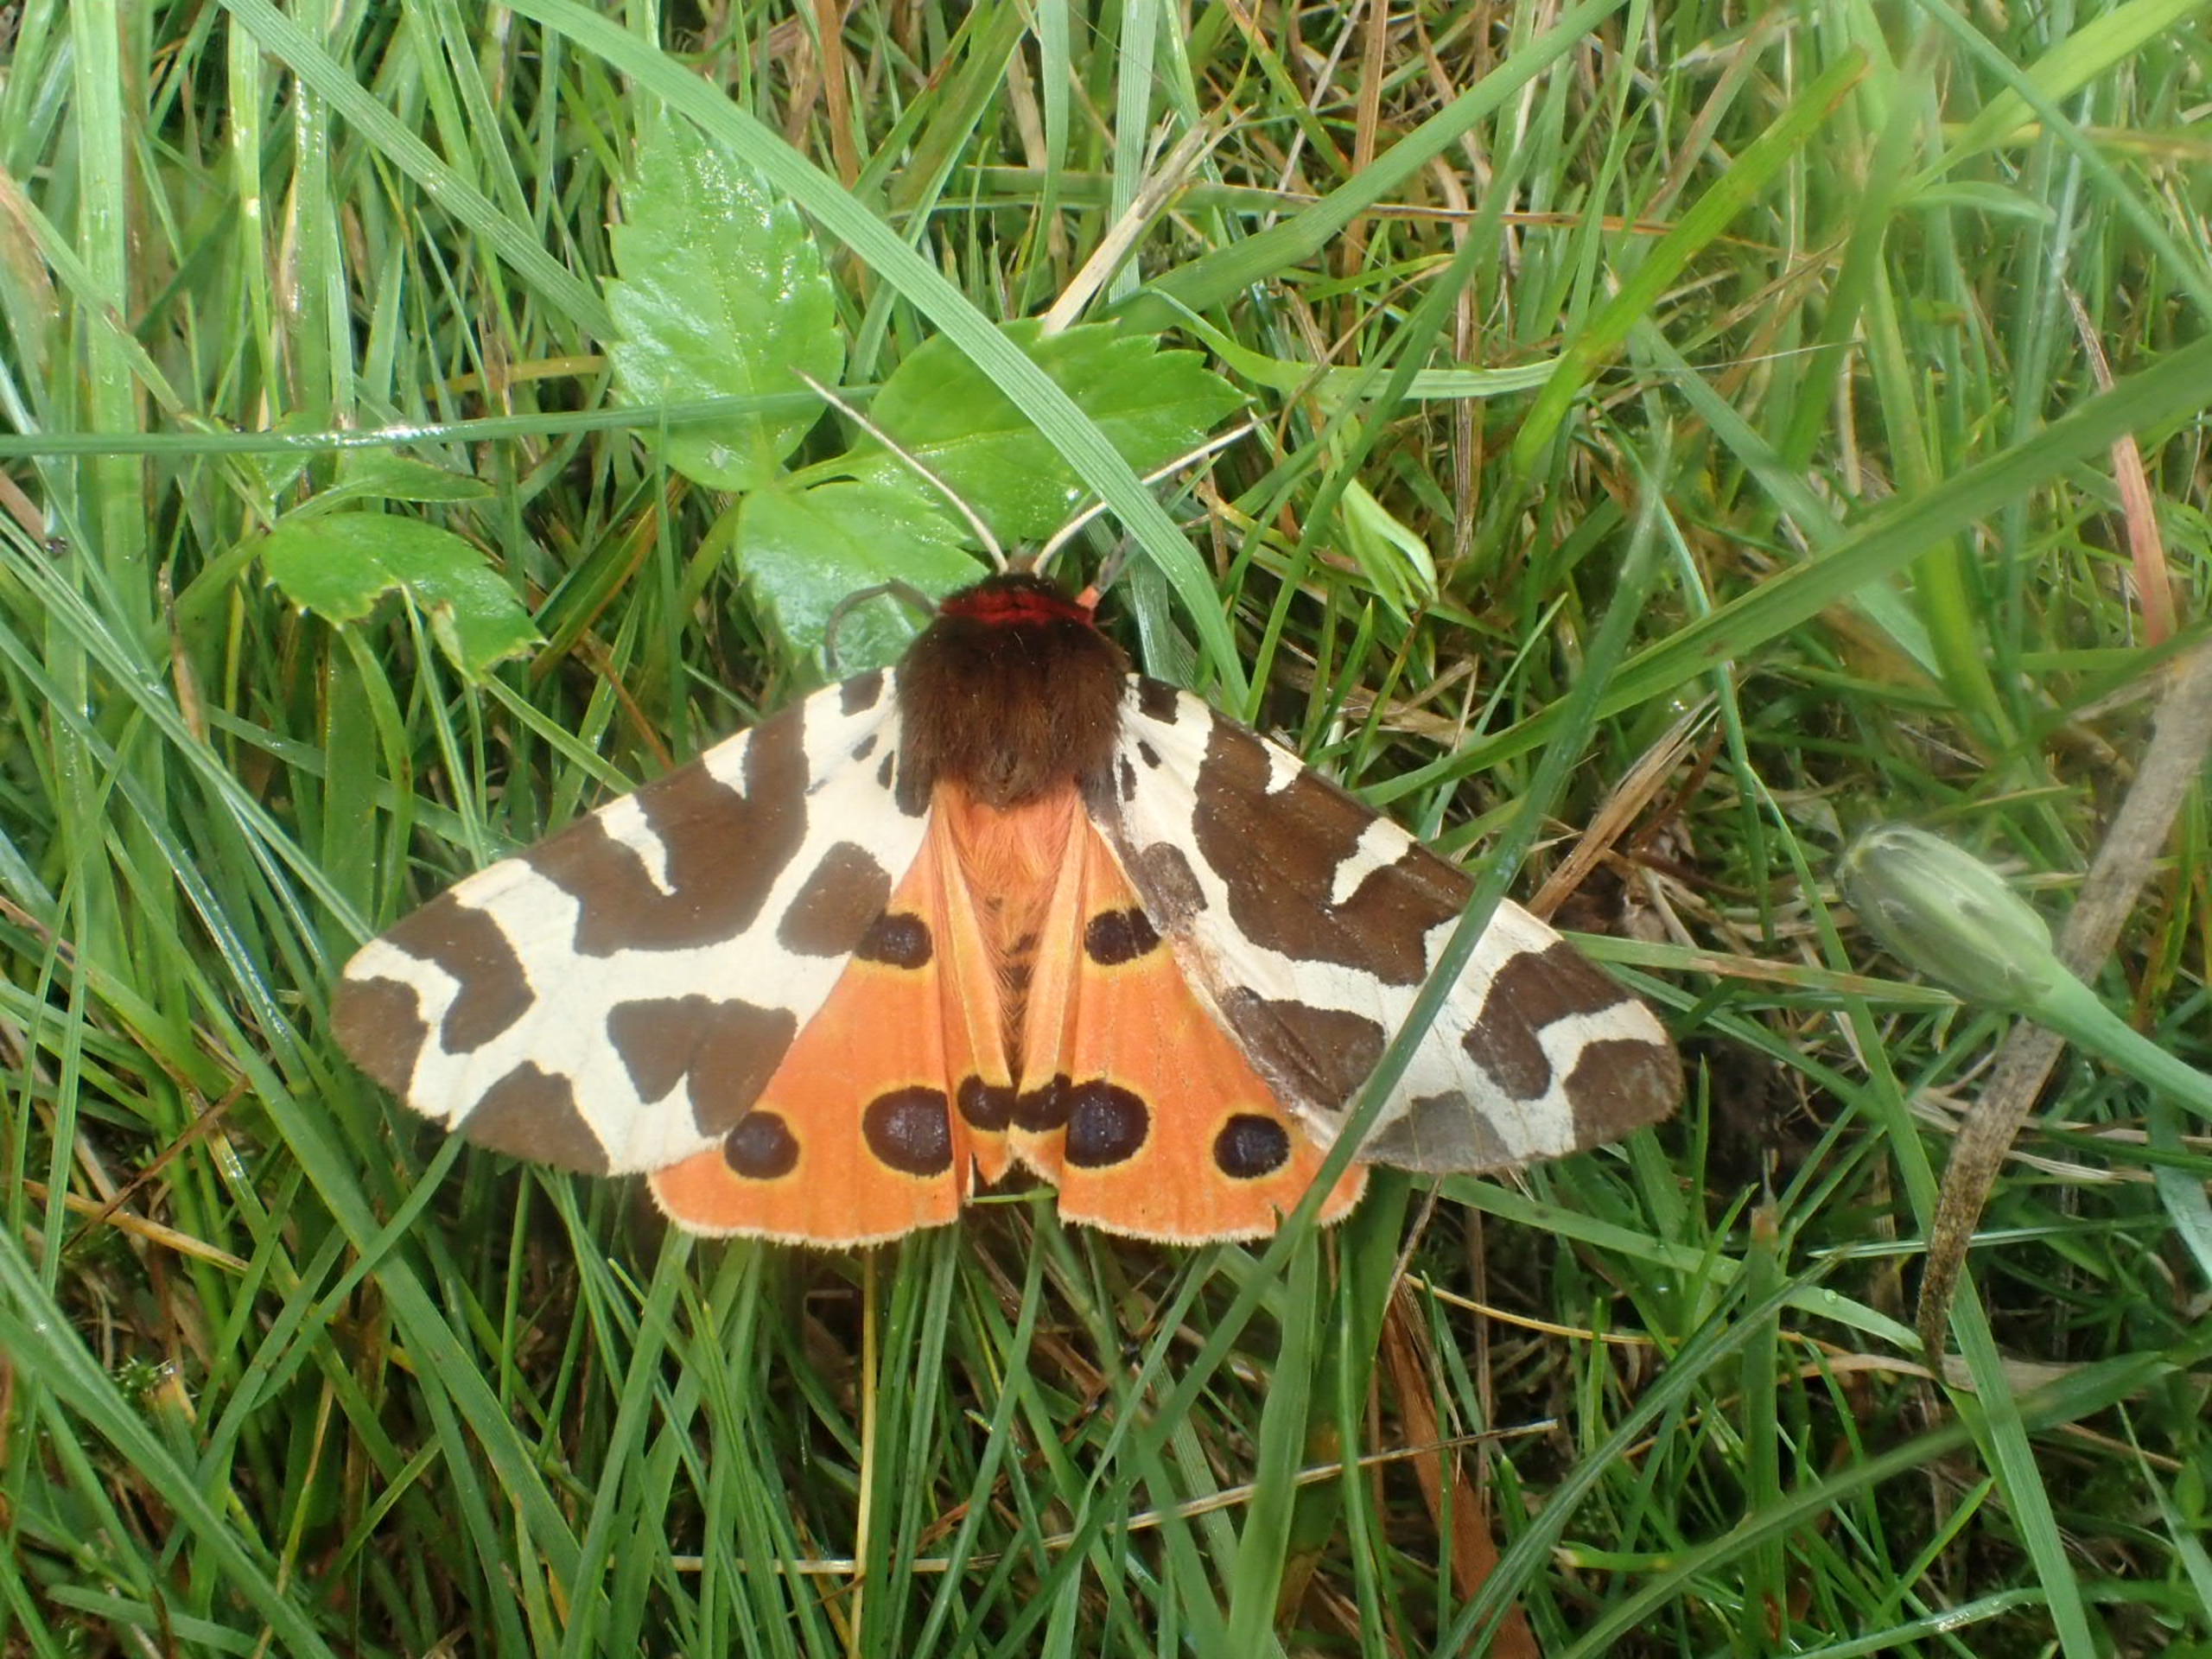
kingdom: Animalia
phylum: Arthropoda
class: Insecta
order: Lepidoptera
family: Erebidae
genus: Arctia
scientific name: Arctia caja
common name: Brun bjørn
